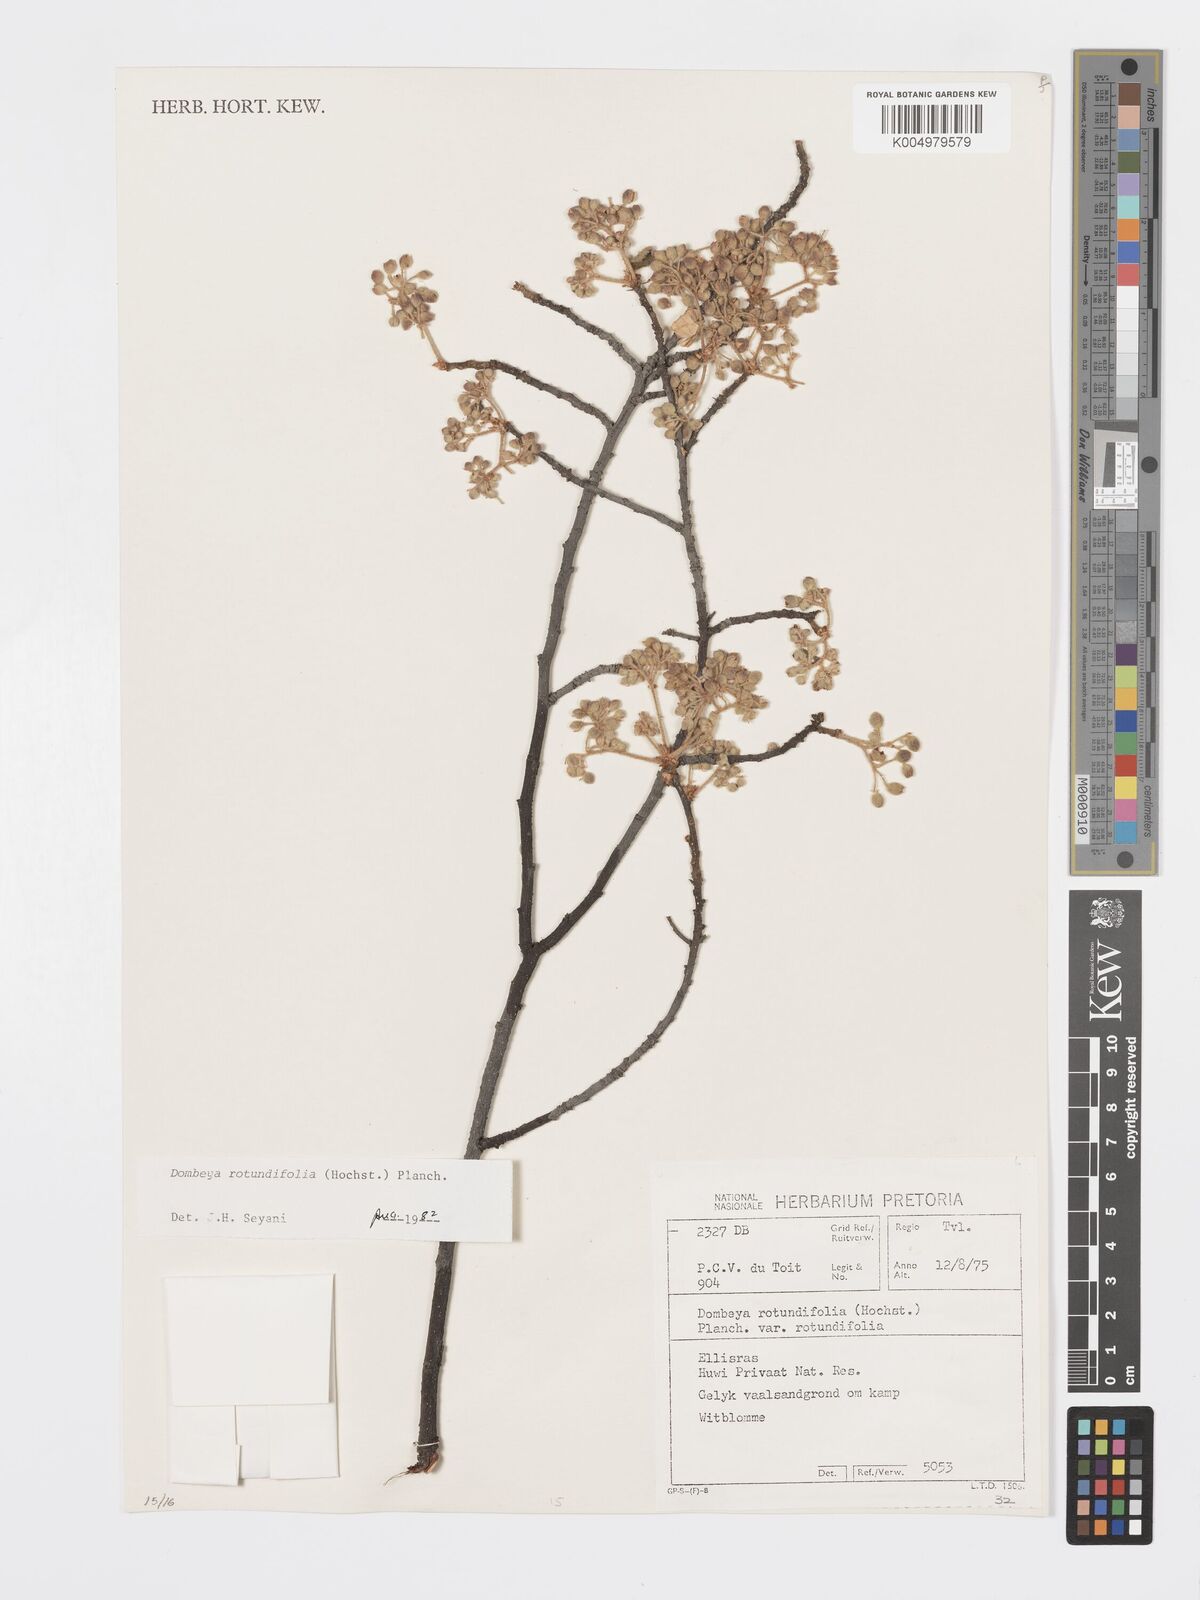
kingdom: Plantae
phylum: Tracheophyta
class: Magnoliopsida
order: Malvales
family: Malvaceae
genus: Dombeya
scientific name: Dombeya rotundifolia
